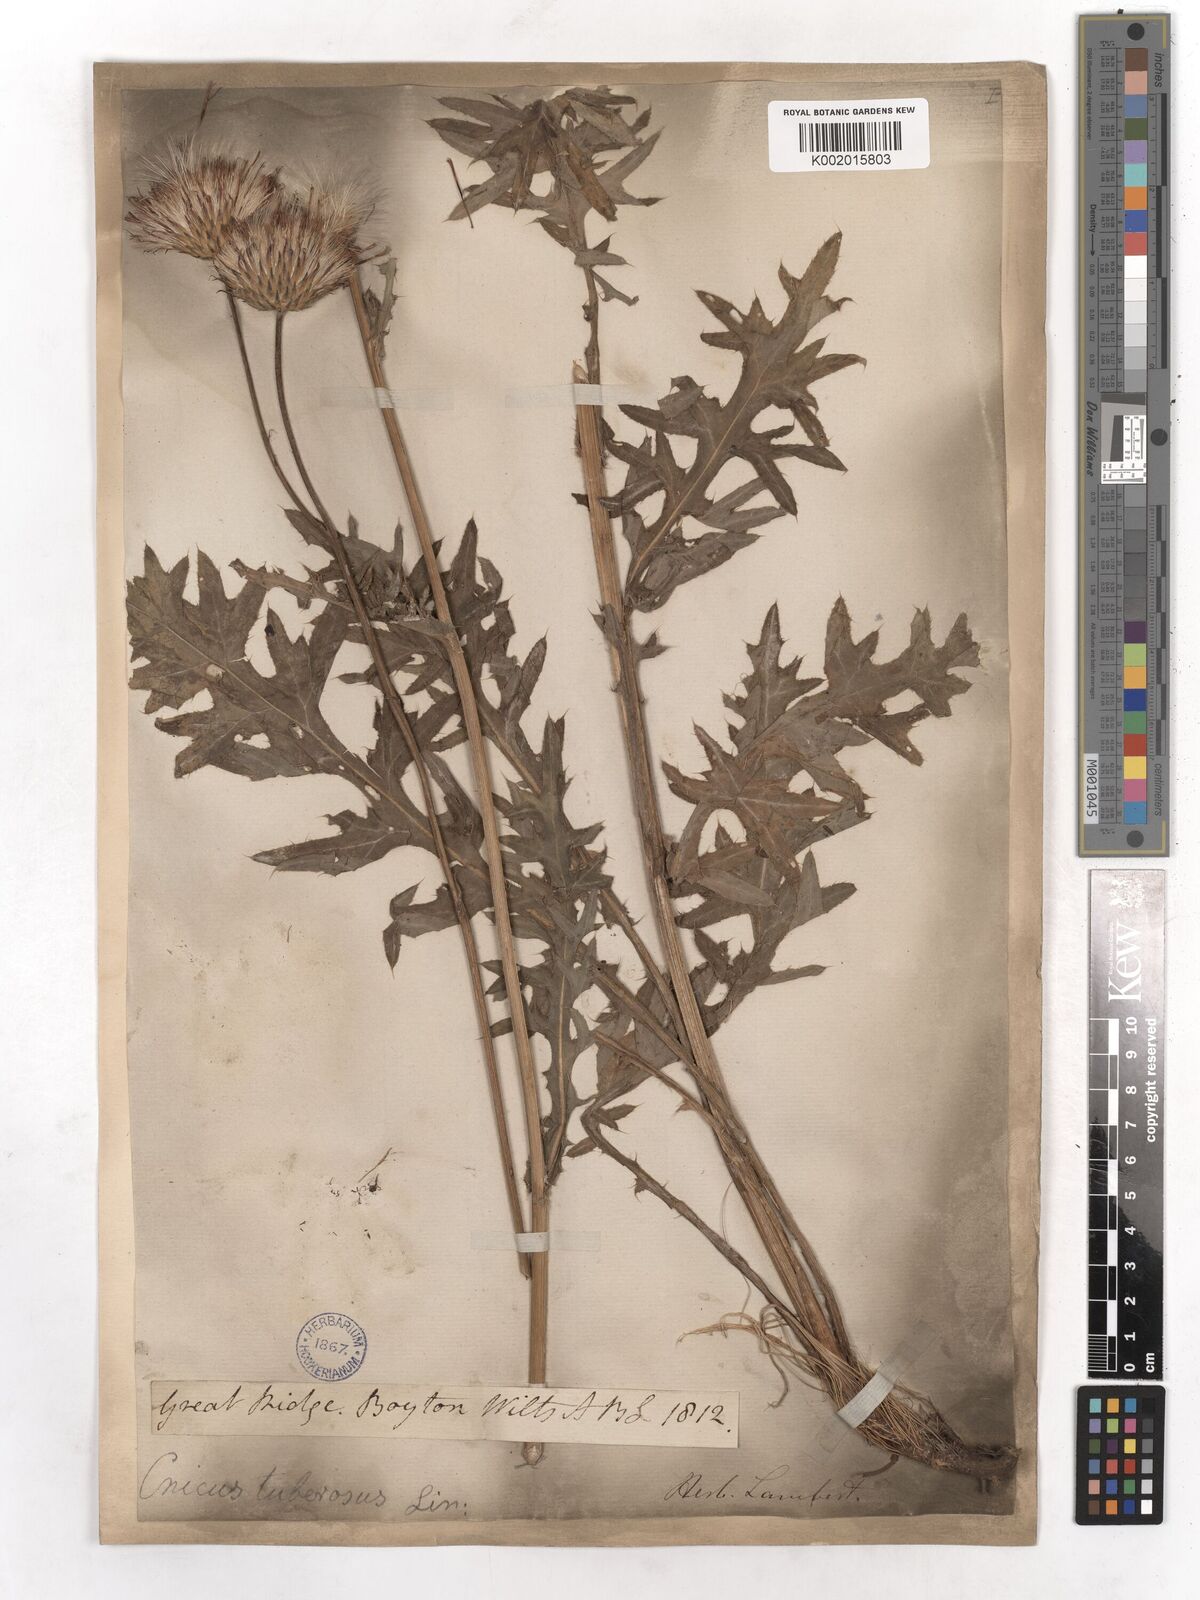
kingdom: Plantae
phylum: Tracheophyta
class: Magnoliopsida
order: Asterales
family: Asteraceae
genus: Cirsium
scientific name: Cirsium tuberosum
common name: Tuberous thistle
